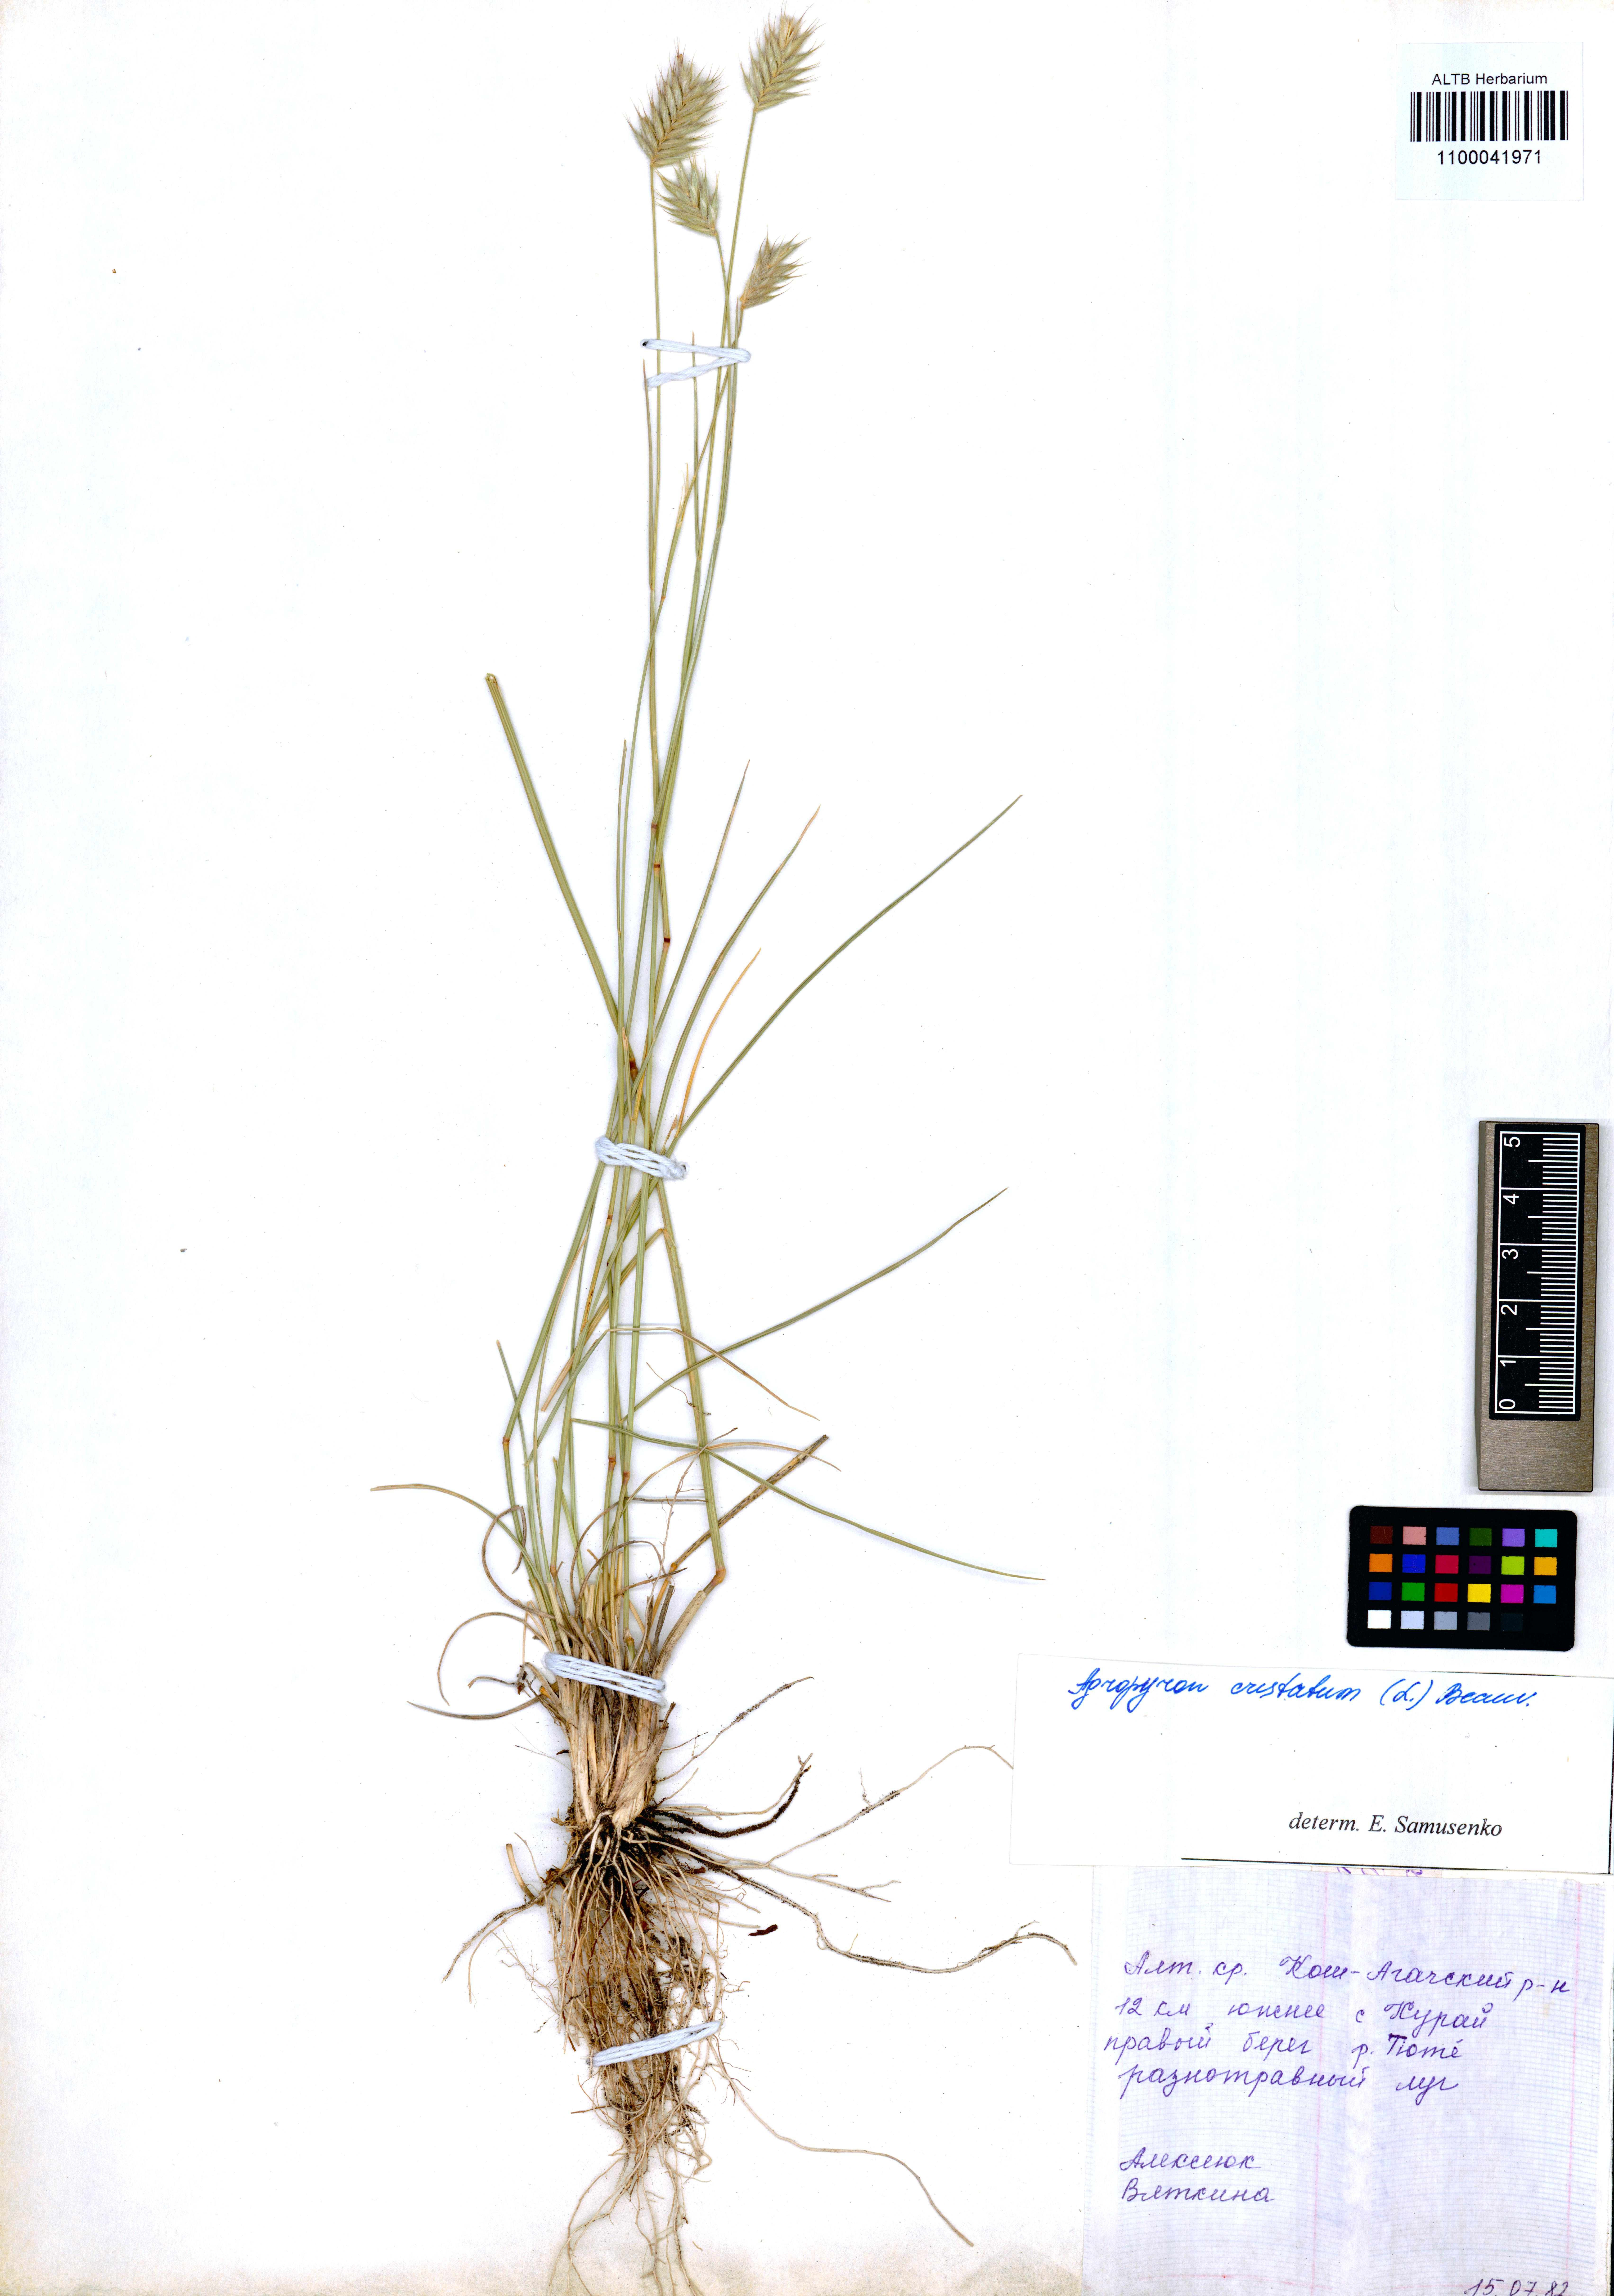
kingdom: Plantae
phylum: Tracheophyta
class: Liliopsida
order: Poales
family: Poaceae
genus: Agropyron
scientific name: Agropyron cristatum
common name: Crested wheatgrass
